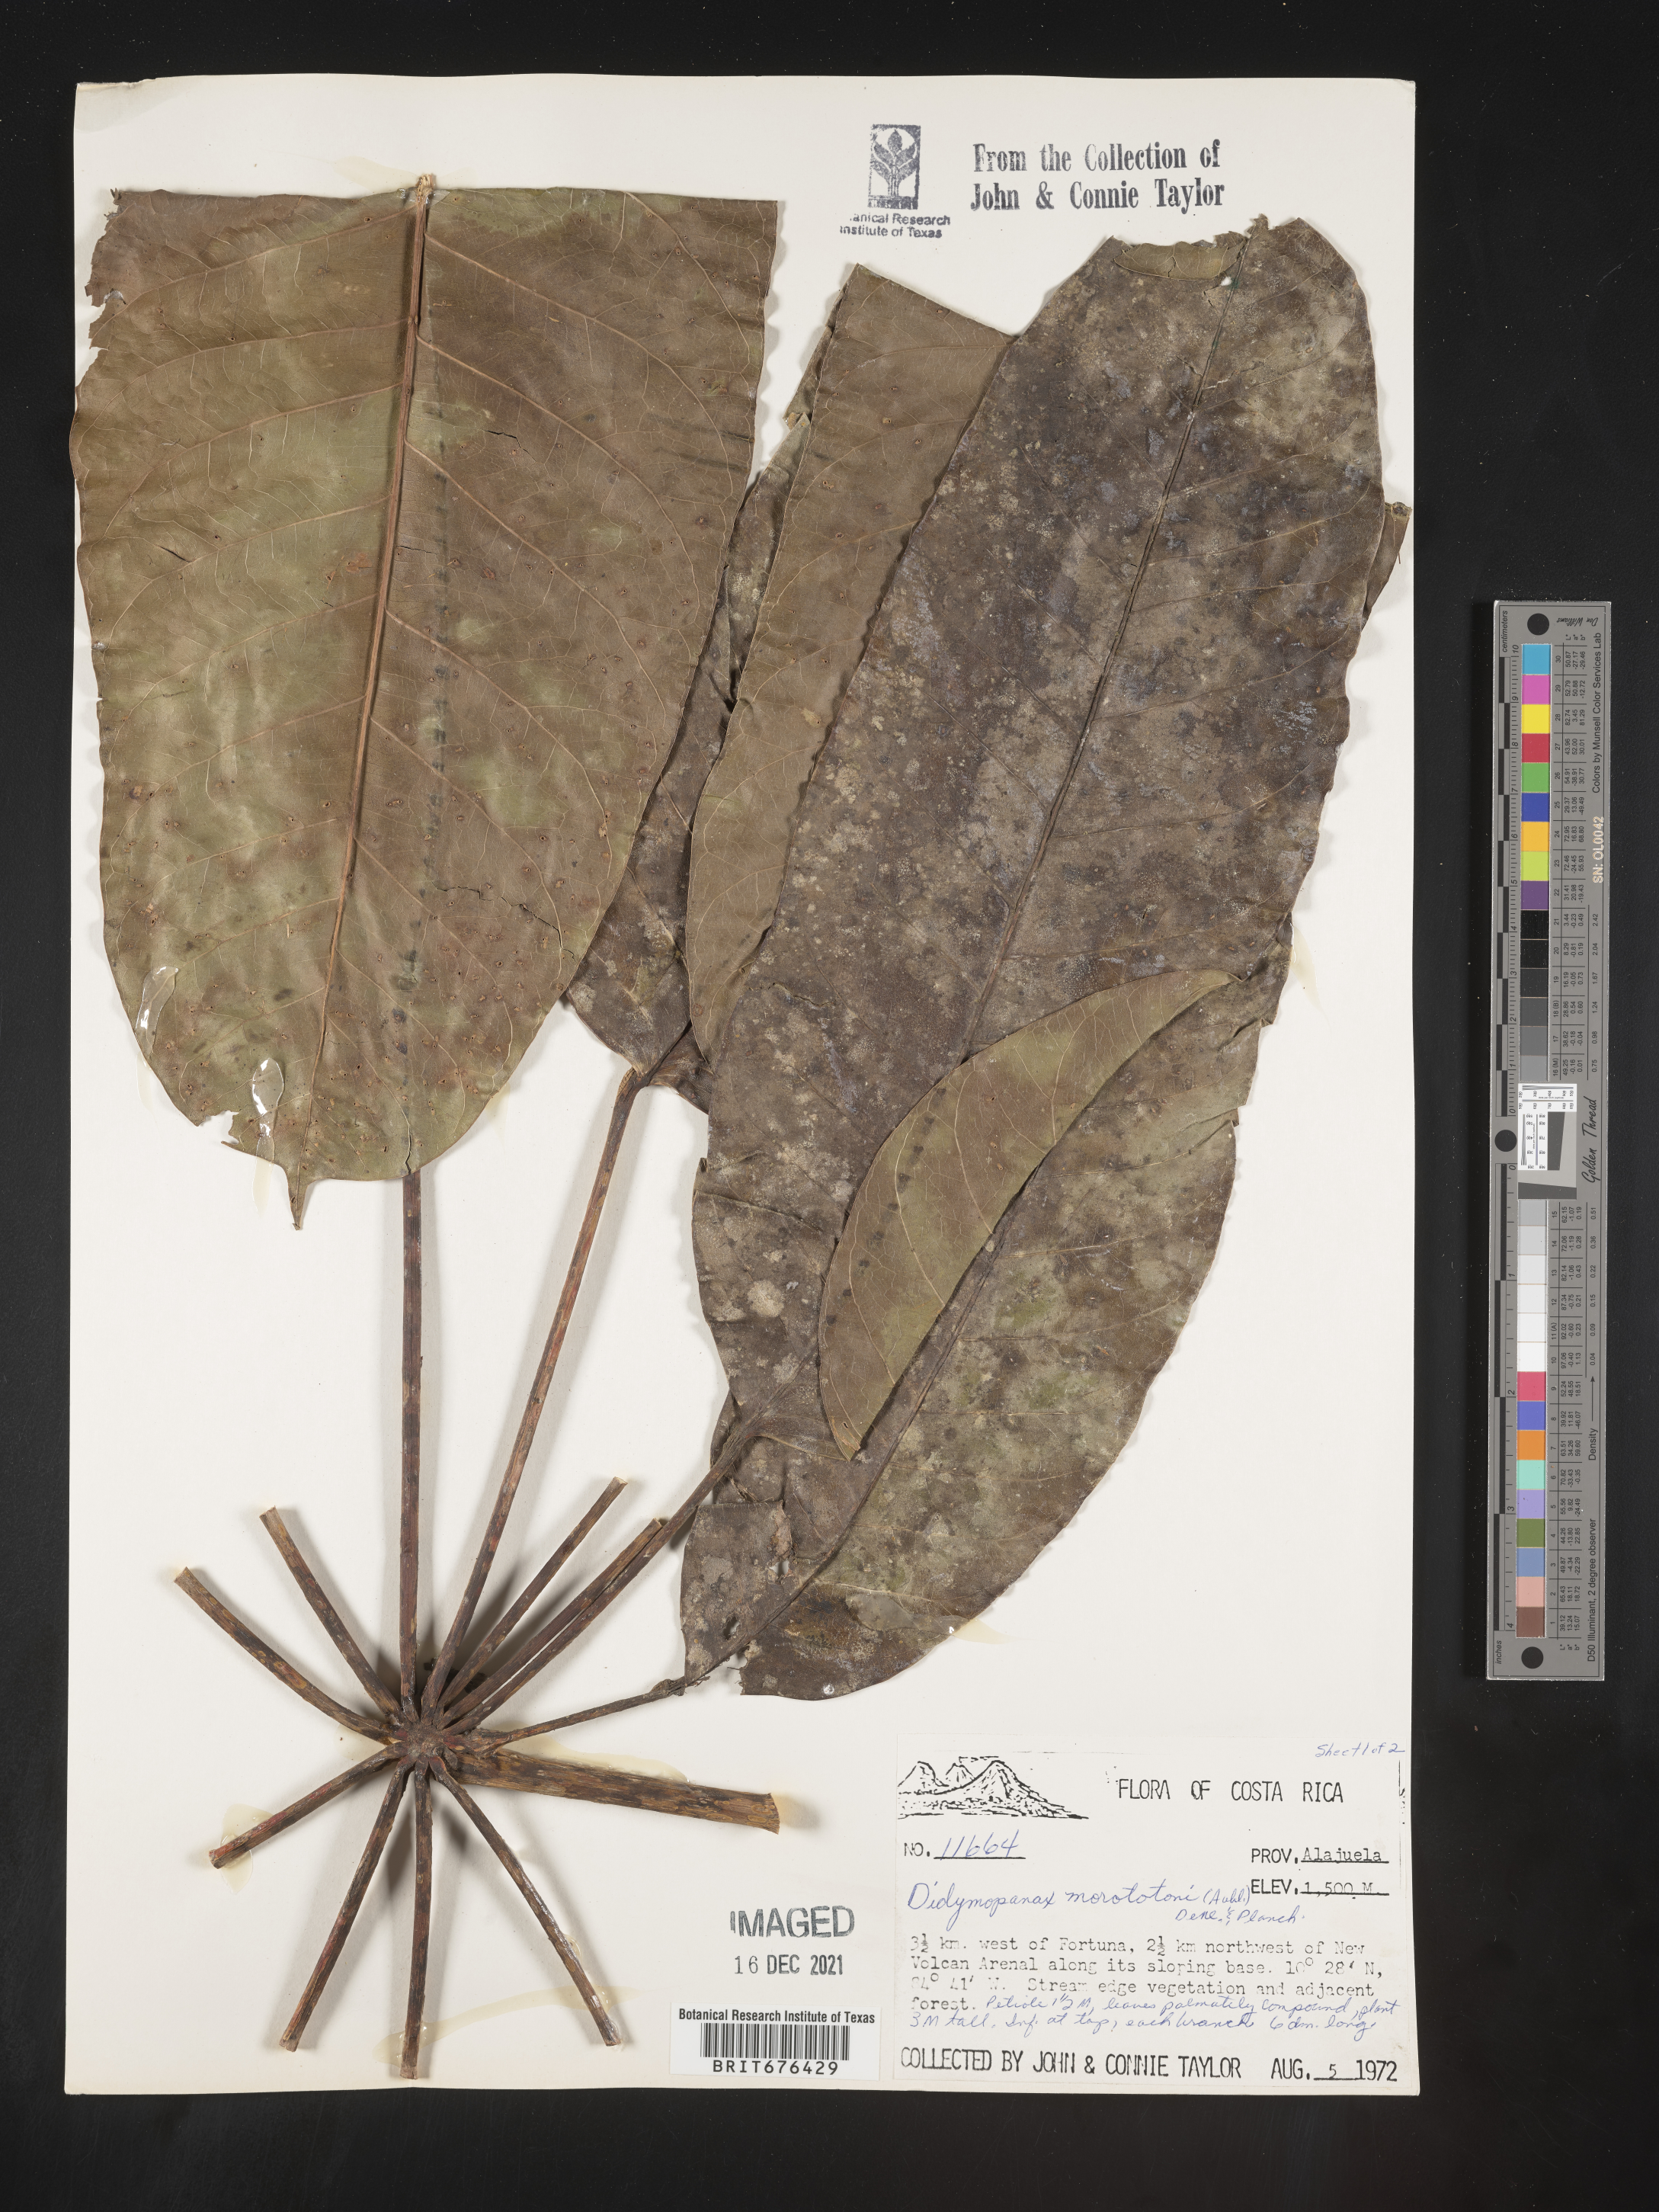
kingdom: Plantae
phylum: Tracheophyta
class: Magnoliopsida
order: Apiales
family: Araliaceae
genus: Didymopanax
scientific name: Didymopanax
